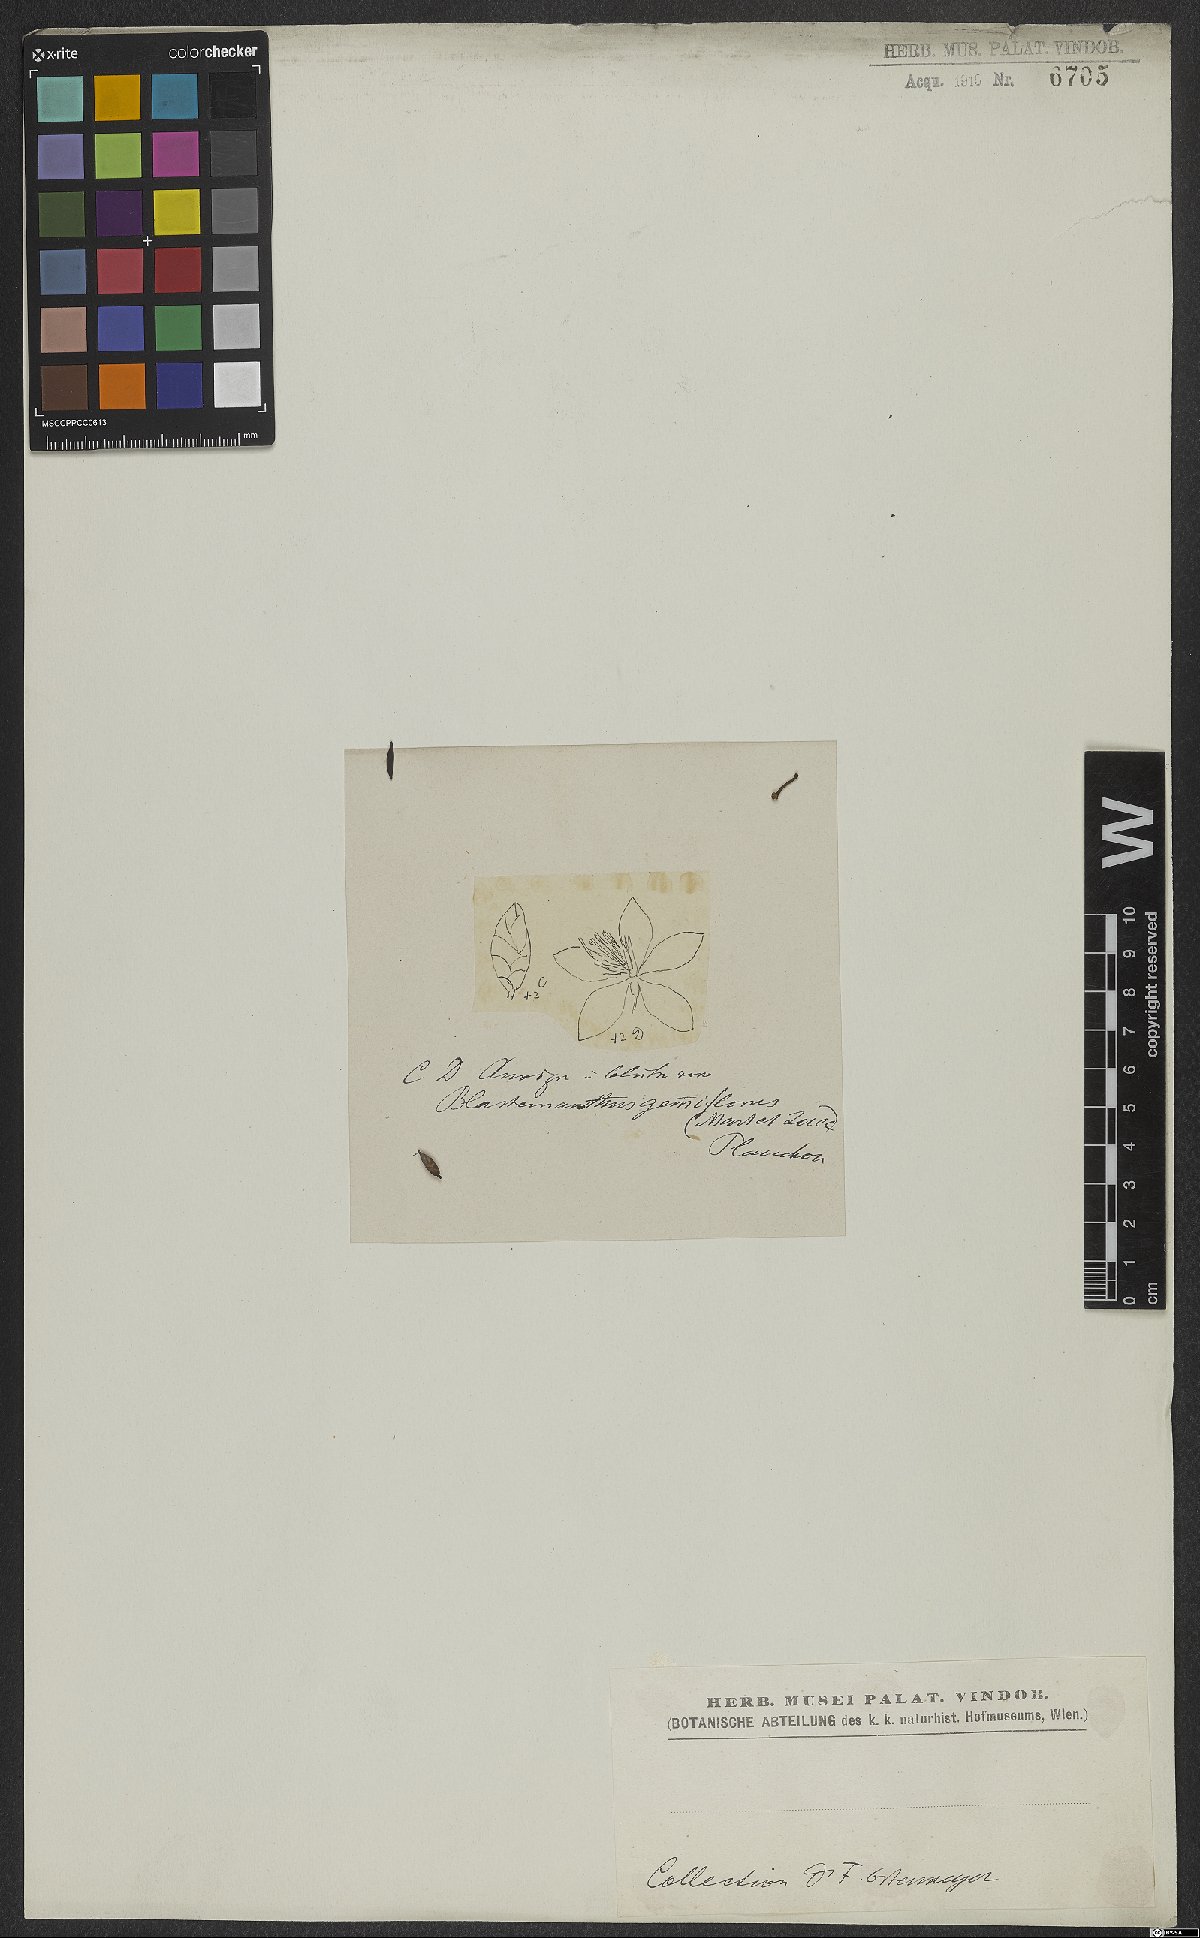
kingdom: Plantae
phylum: Tracheophyta
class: Magnoliopsida
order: Malpighiales
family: Ochnaceae
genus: Blastemanthus
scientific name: Blastemanthus gemmiflorus
